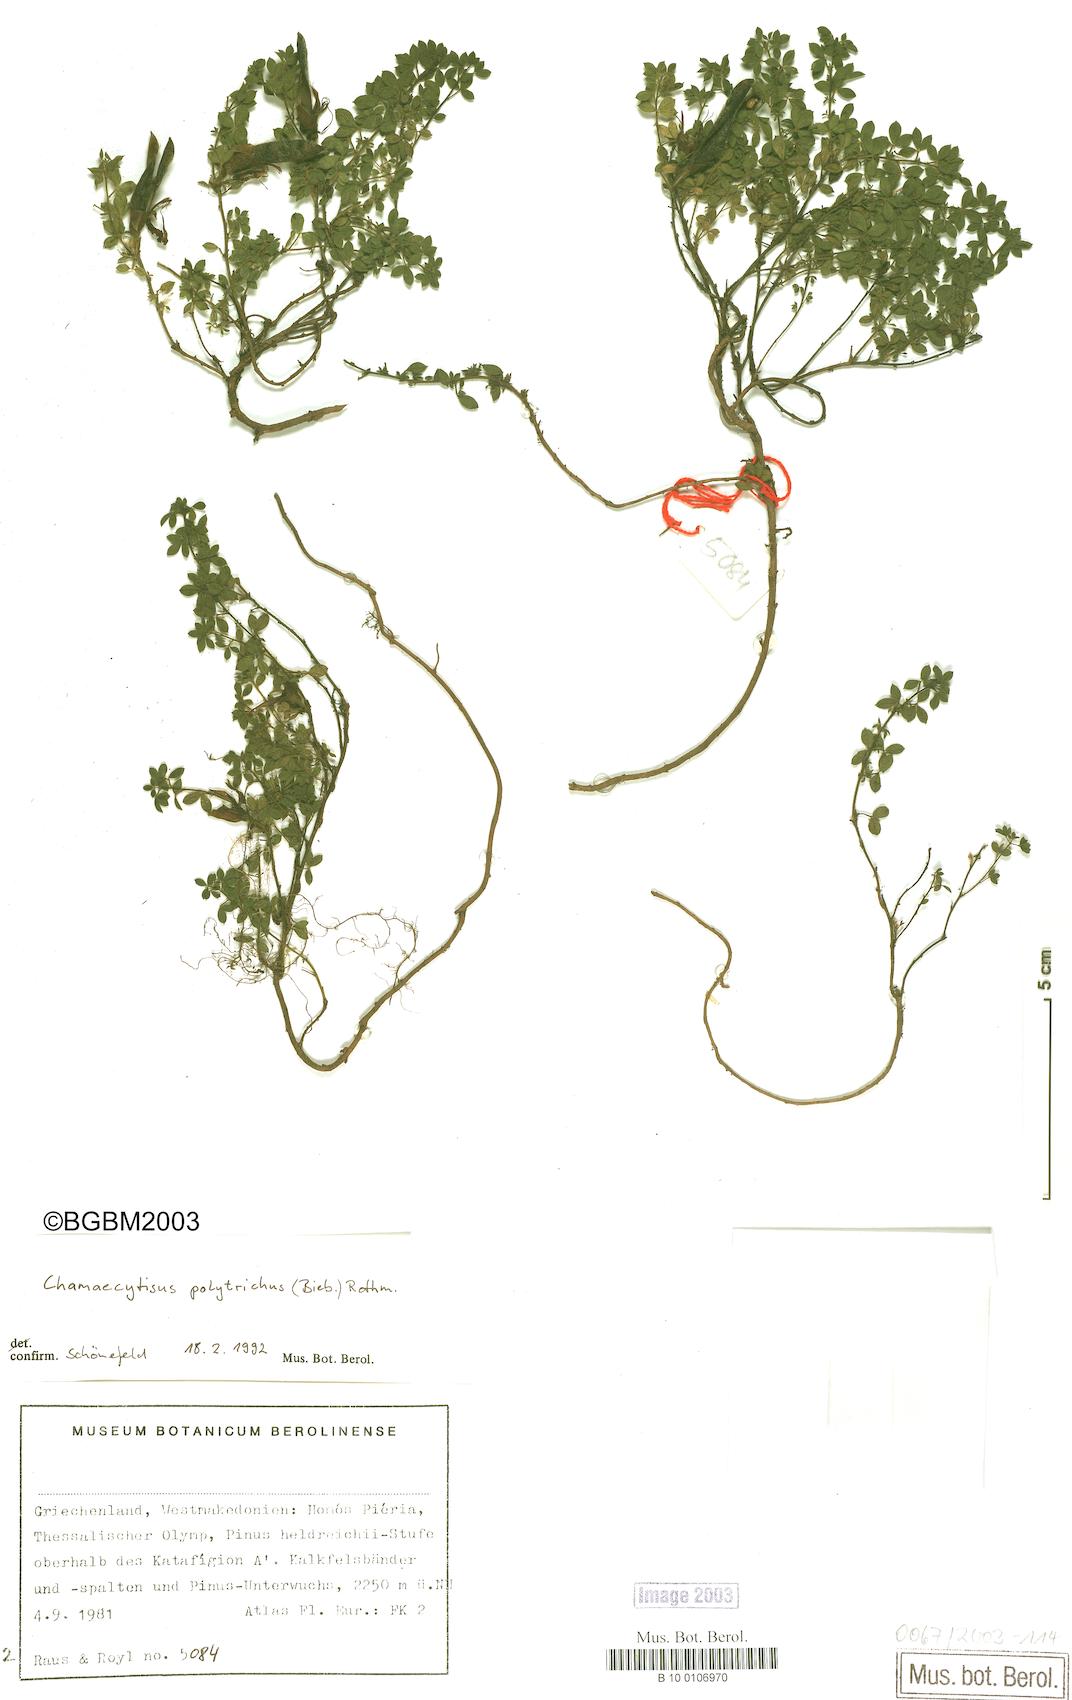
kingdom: Plantae
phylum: Tracheophyta
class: Magnoliopsida
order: Fabales
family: Fabaceae
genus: Chamaecytisus
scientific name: Chamaecytisus hirsutus
